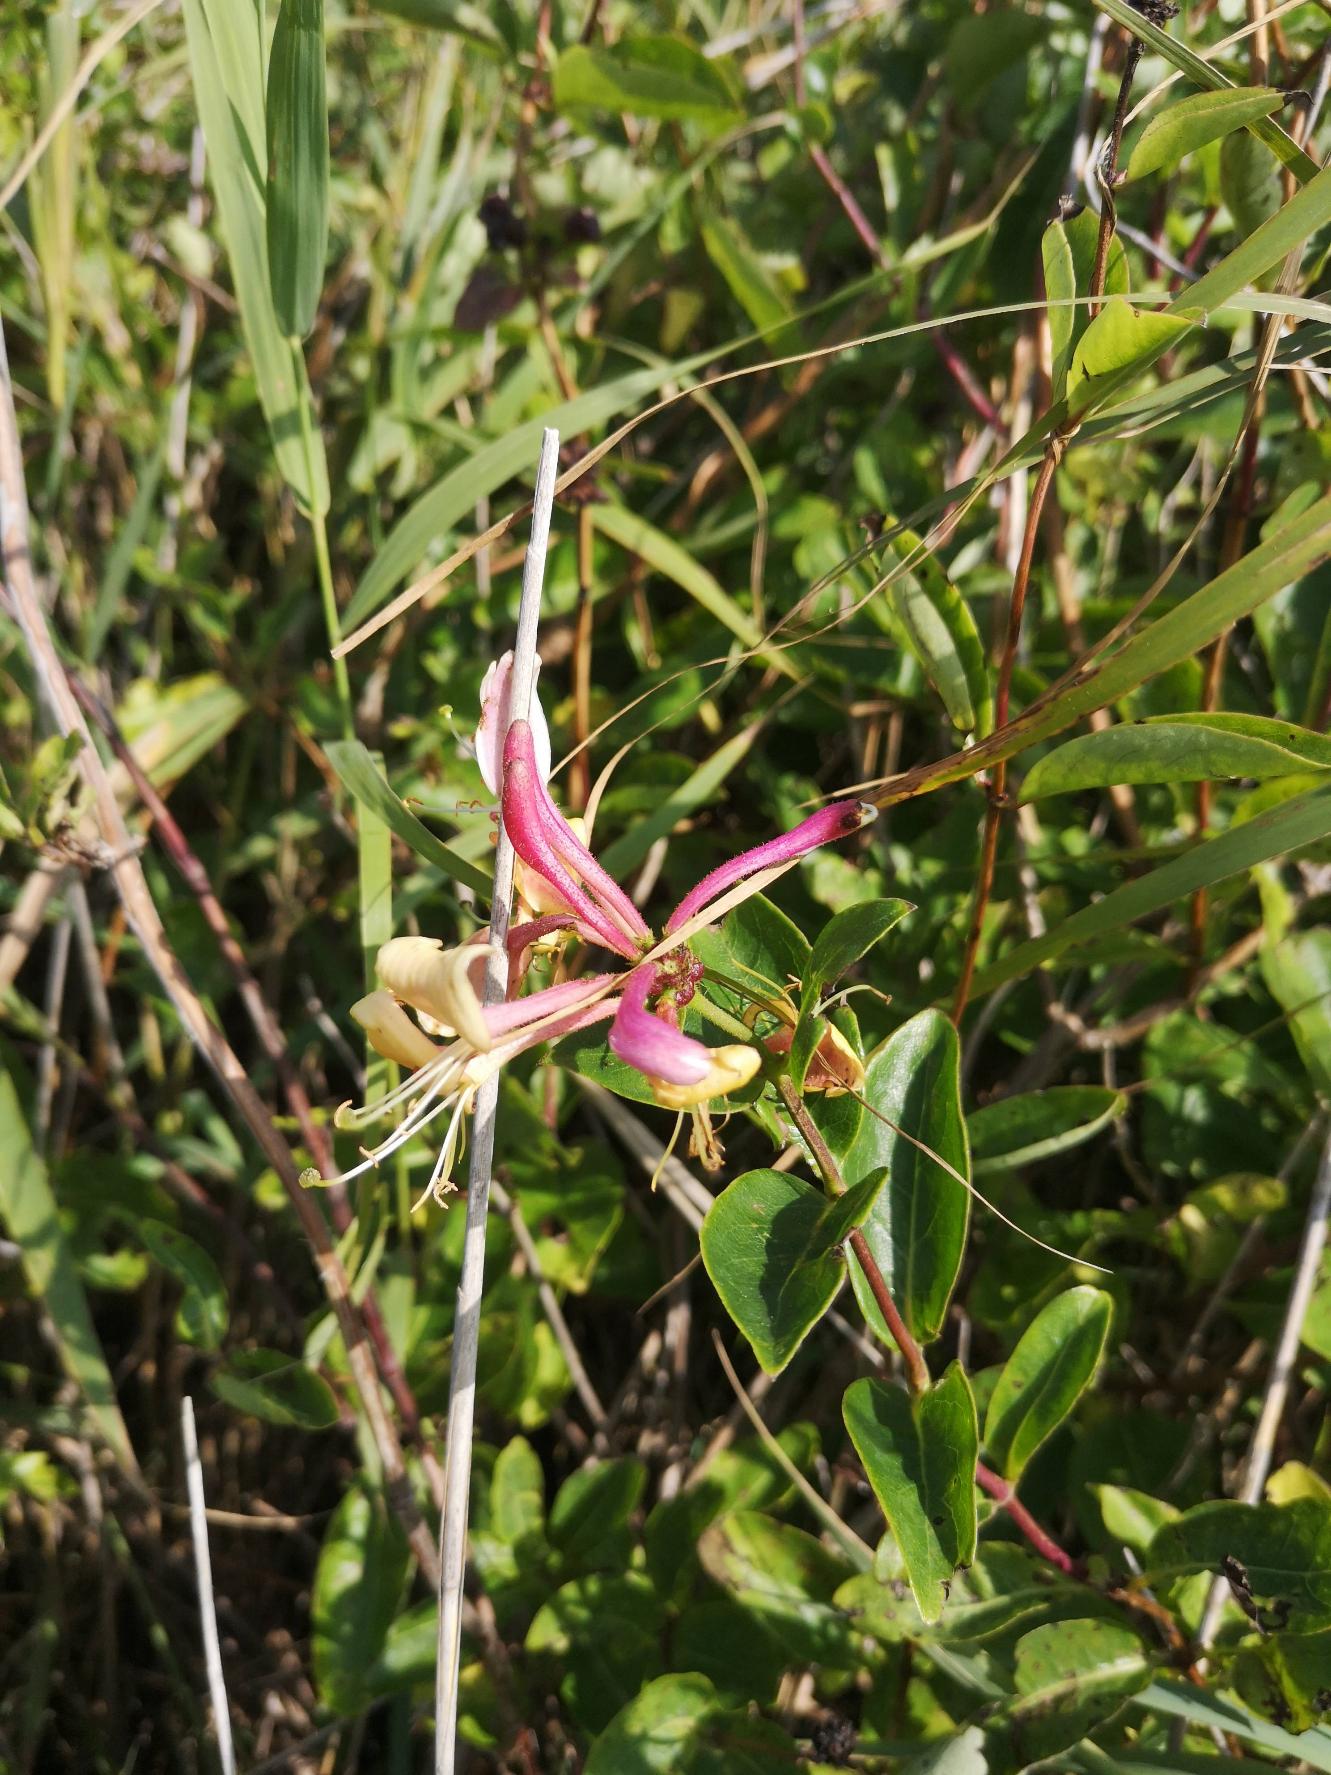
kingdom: Plantae
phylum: Tracheophyta
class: Magnoliopsida
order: Dipsacales
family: Caprifoliaceae
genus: Lonicera
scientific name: Lonicera periclymenum
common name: Almindelig gedeblad
